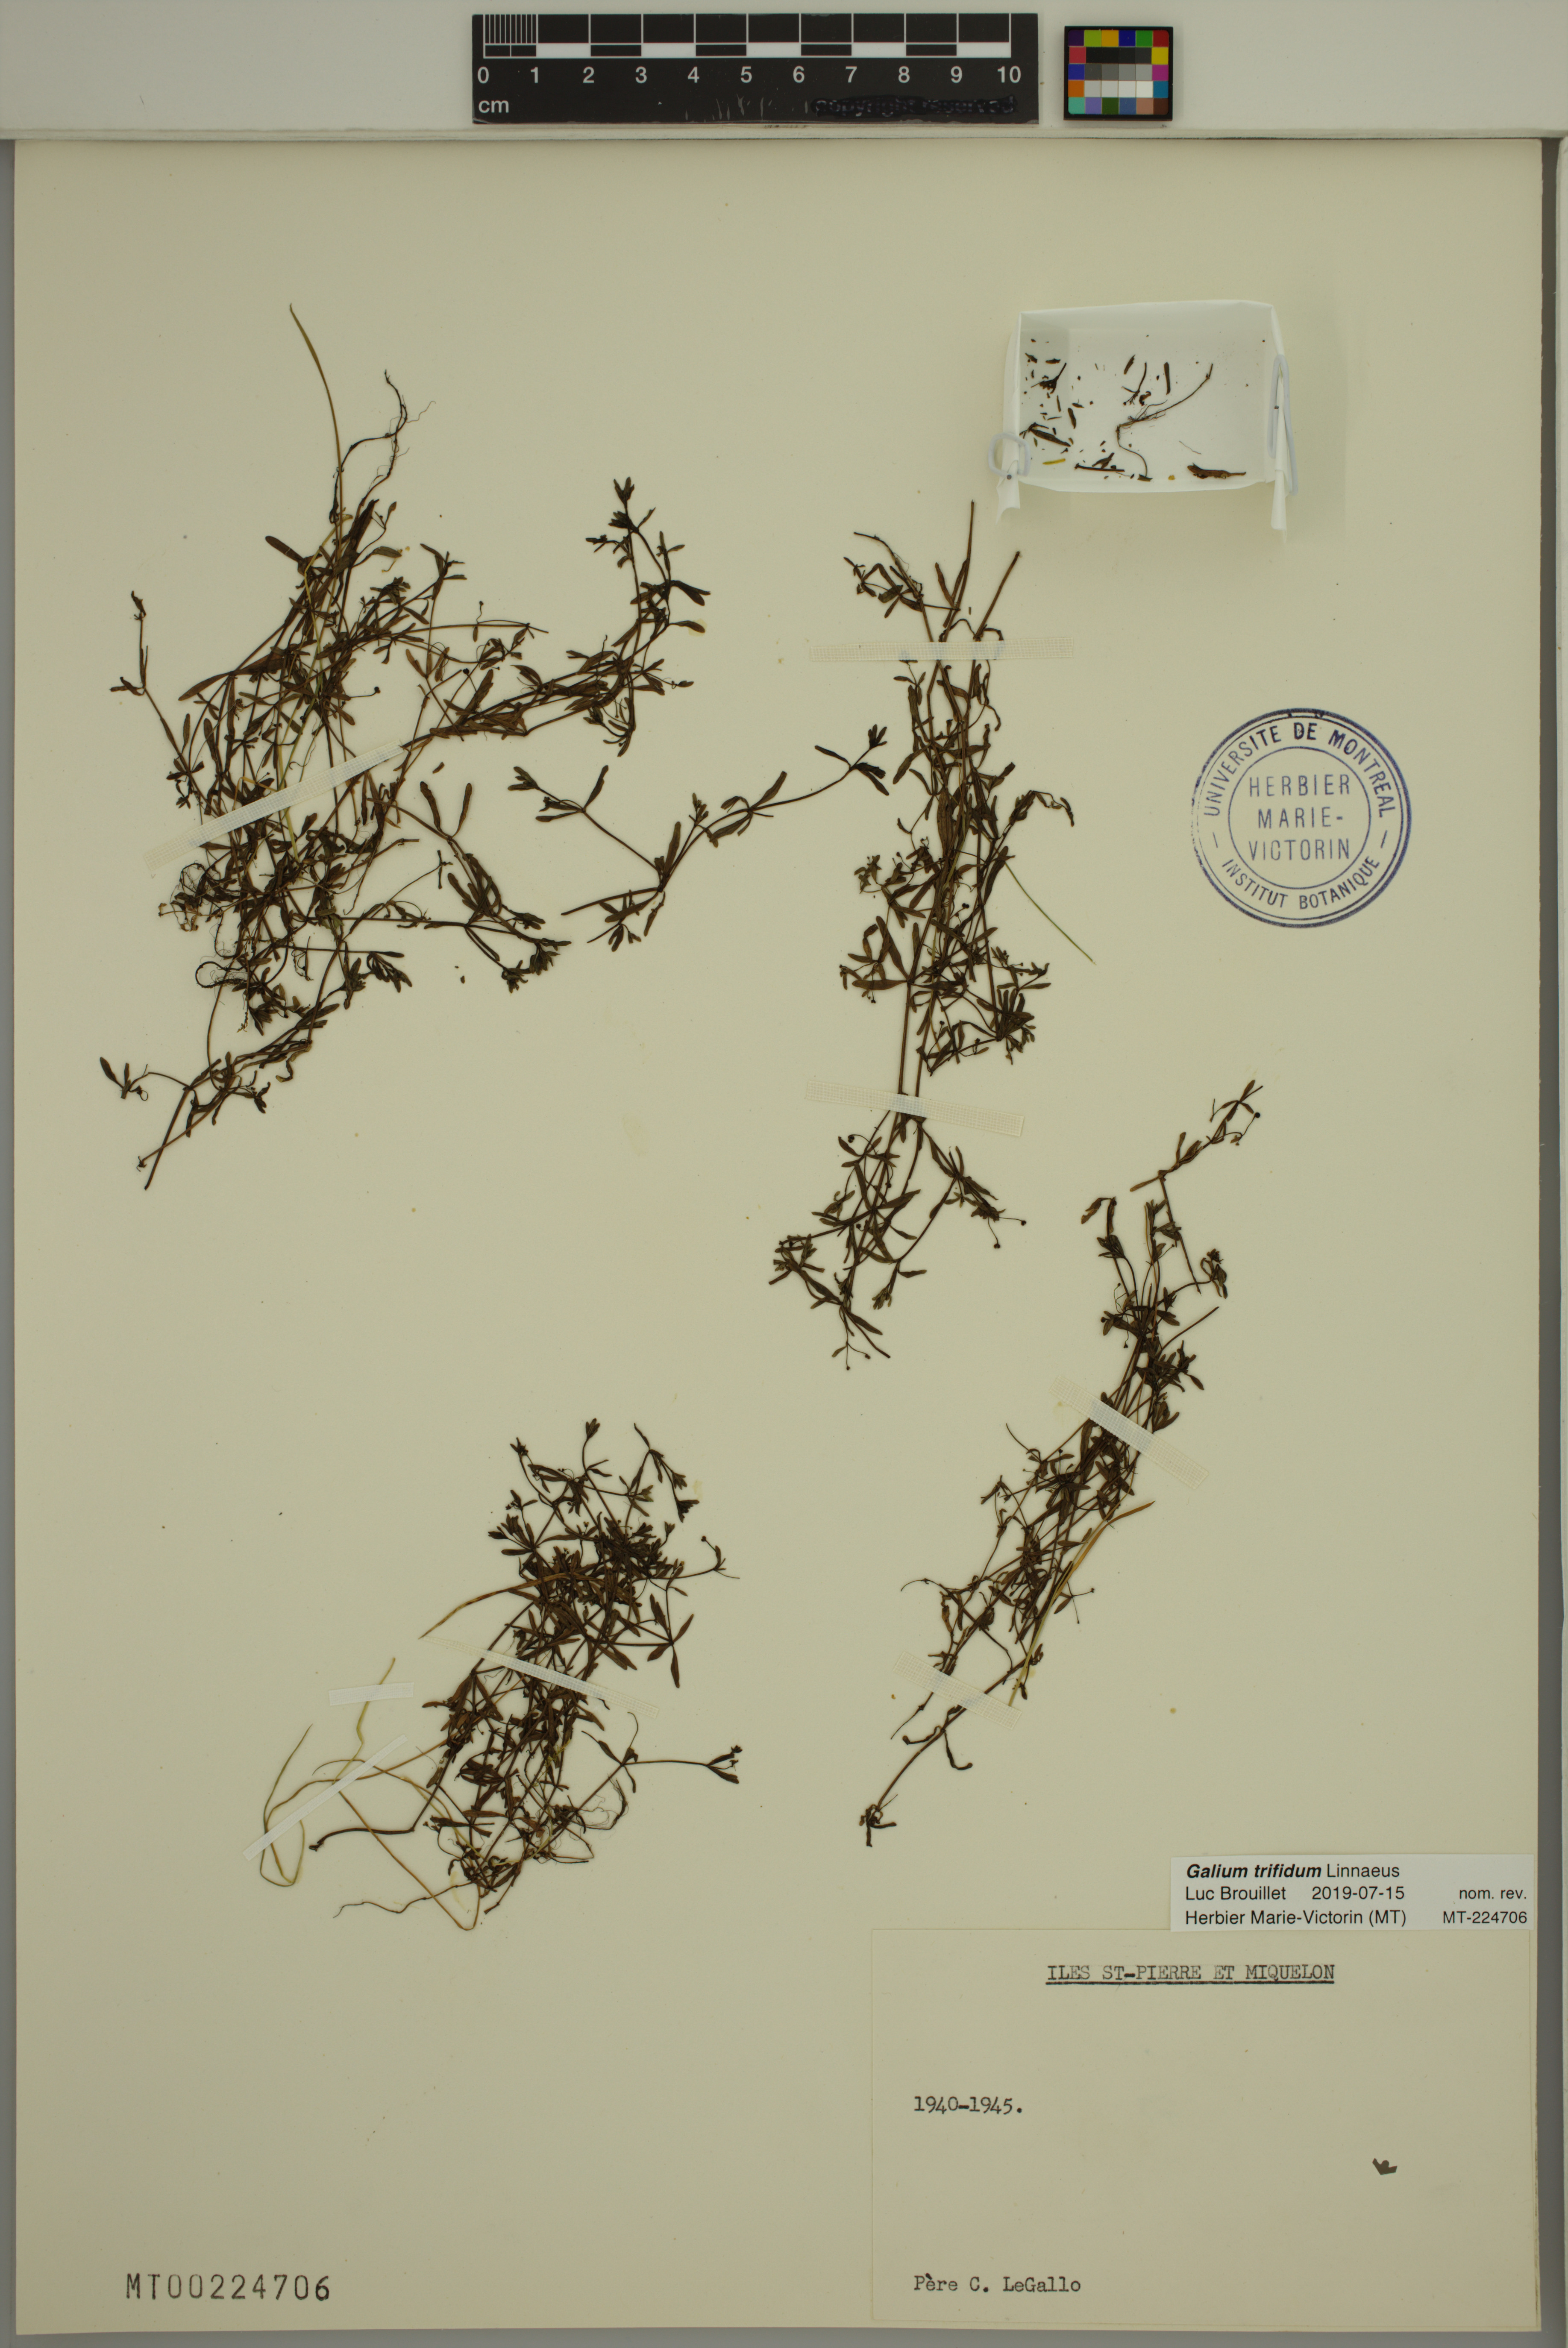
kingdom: Plantae
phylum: Tracheophyta
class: Magnoliopsida
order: Gentianales
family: Rubiaceae
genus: Galium
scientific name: Galium trifidum
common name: Small bedstraw
